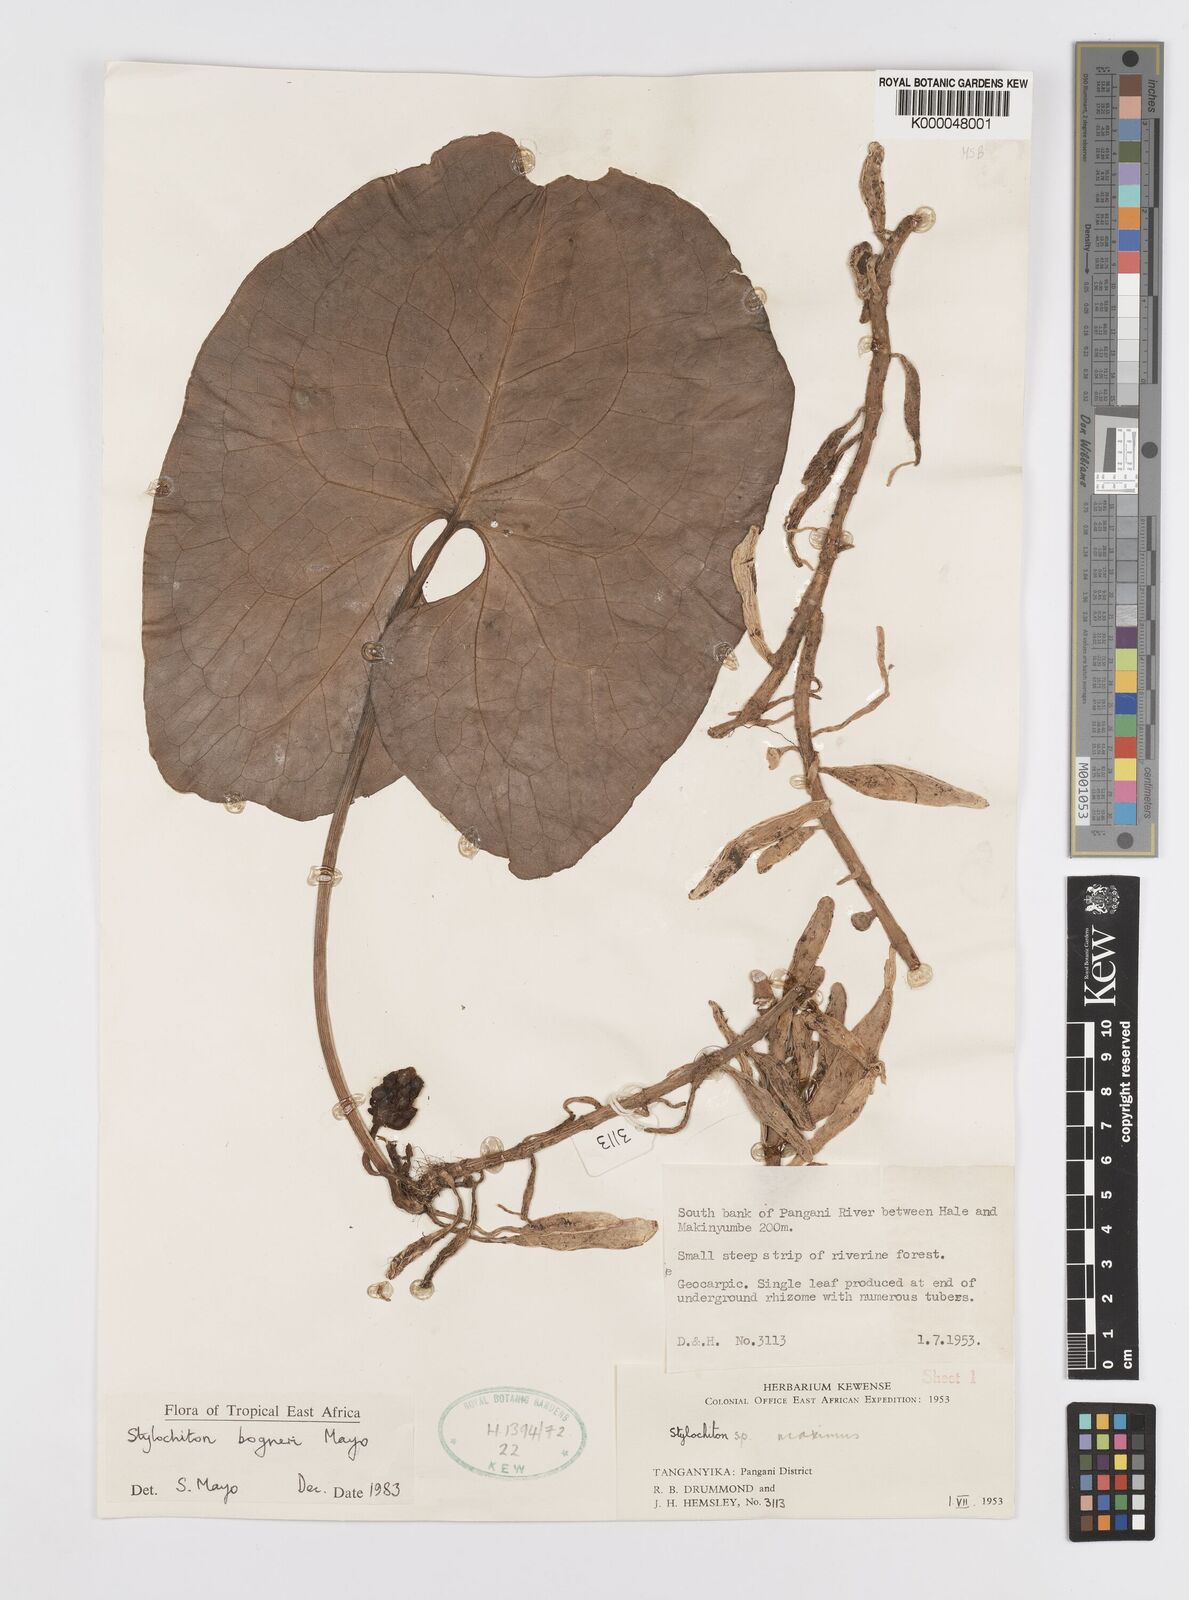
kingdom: Plantae
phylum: Tracheophyta
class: Liliopsida
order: Alismatales
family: Araceae
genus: Stylochaeton
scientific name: Stylochaeton bogneri
